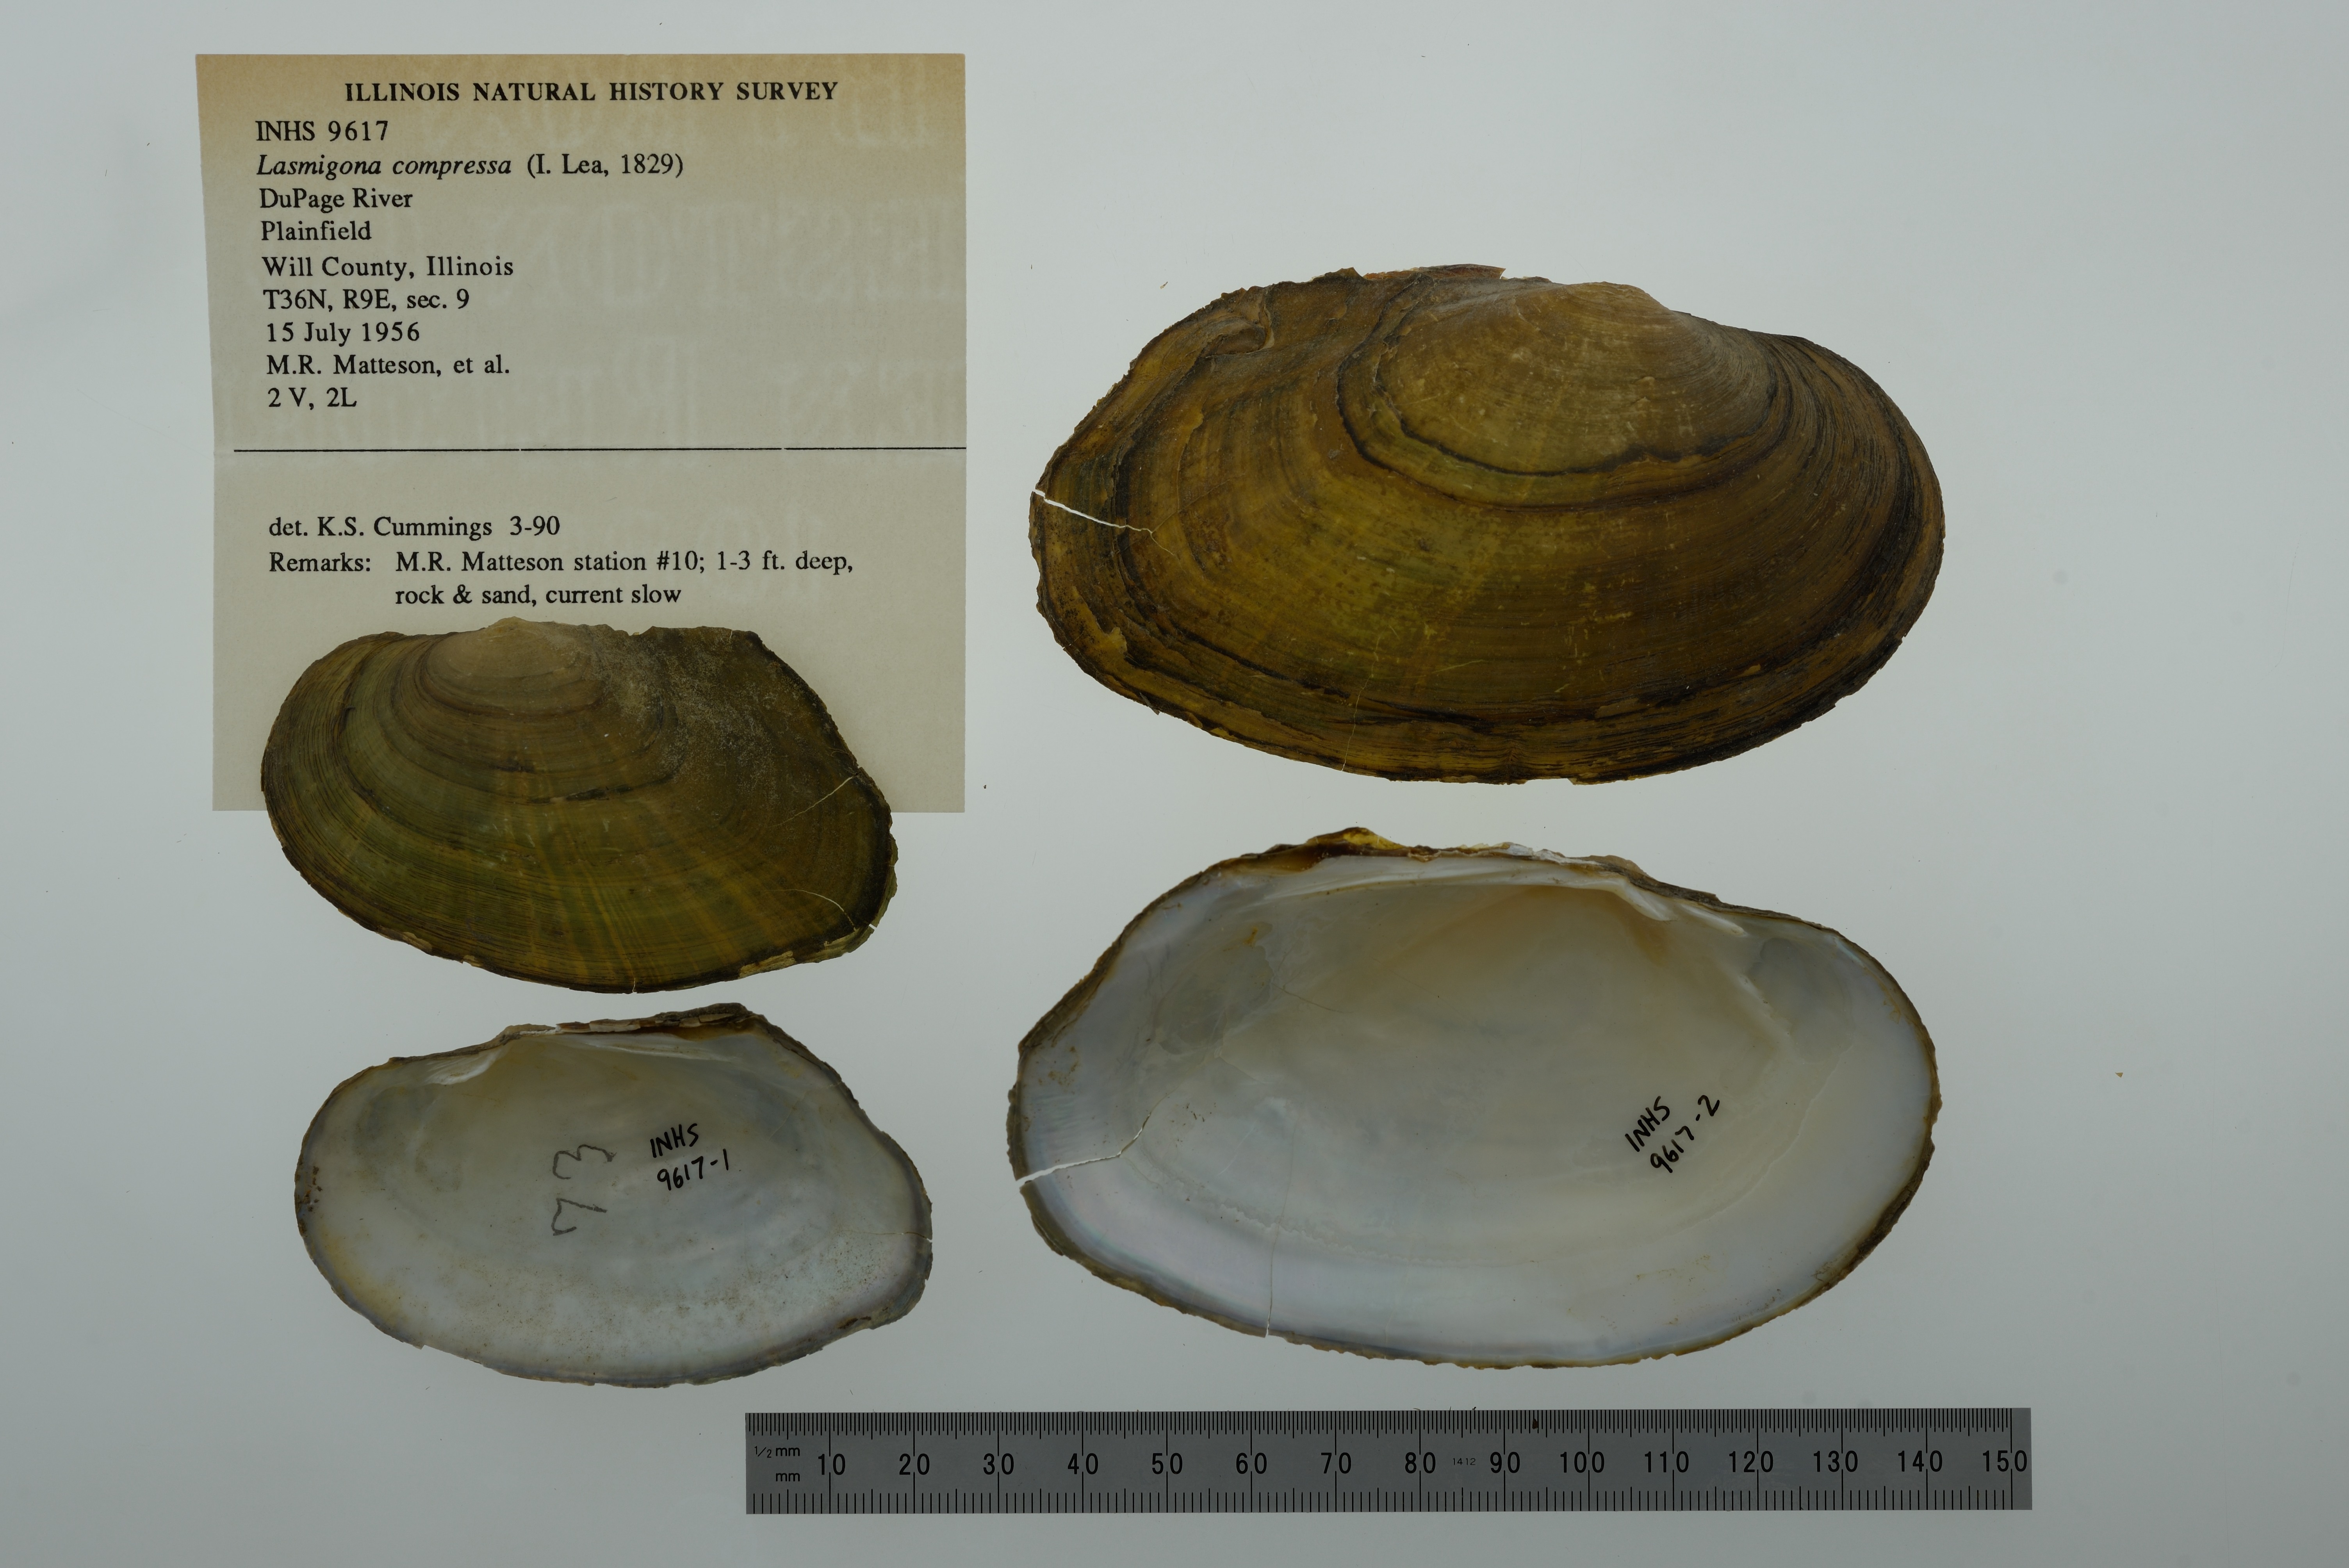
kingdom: Animalia
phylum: Mollusca
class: Bivalvia
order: Unionida
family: Unionidae
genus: Lasmigona
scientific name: Lasmigona compressa
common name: Creek heelsplitter
